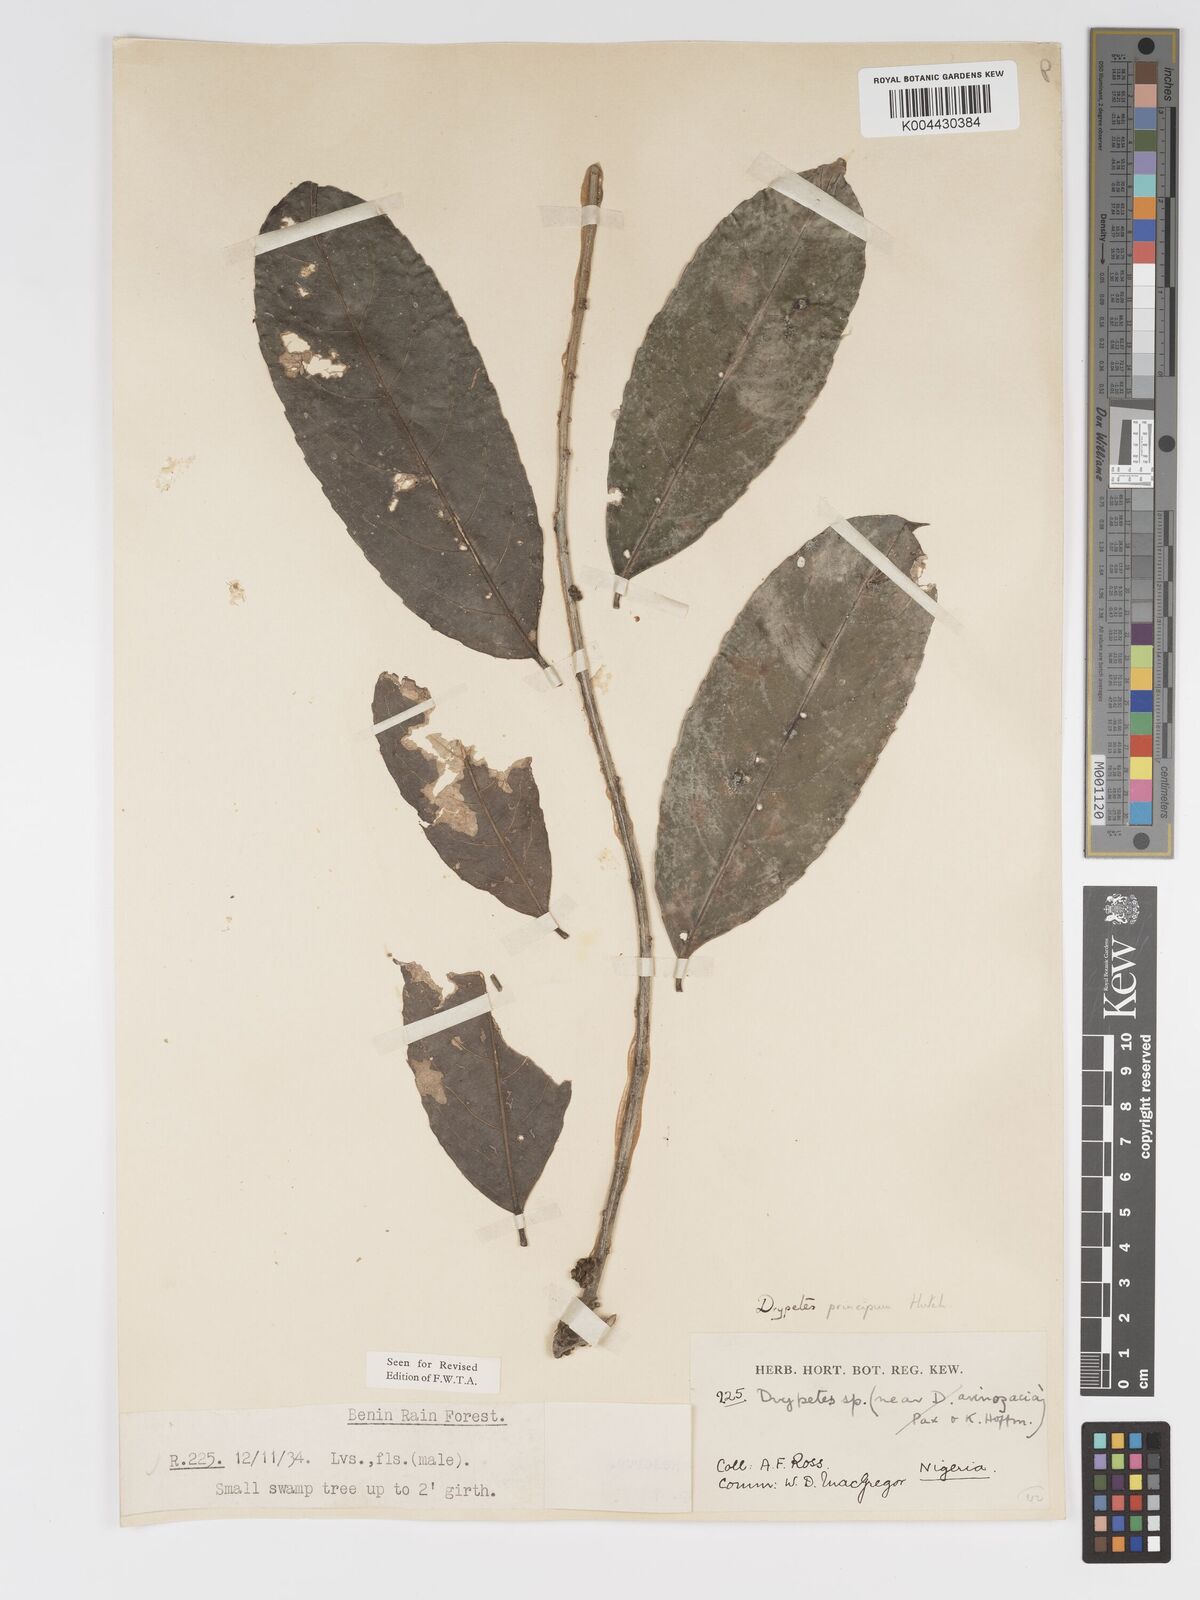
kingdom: Plantae
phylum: Tracheophyta
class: Magnoliopsida
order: Malpighiales
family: Putranjivaceae
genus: Drypetes
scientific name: Drypetes principum
